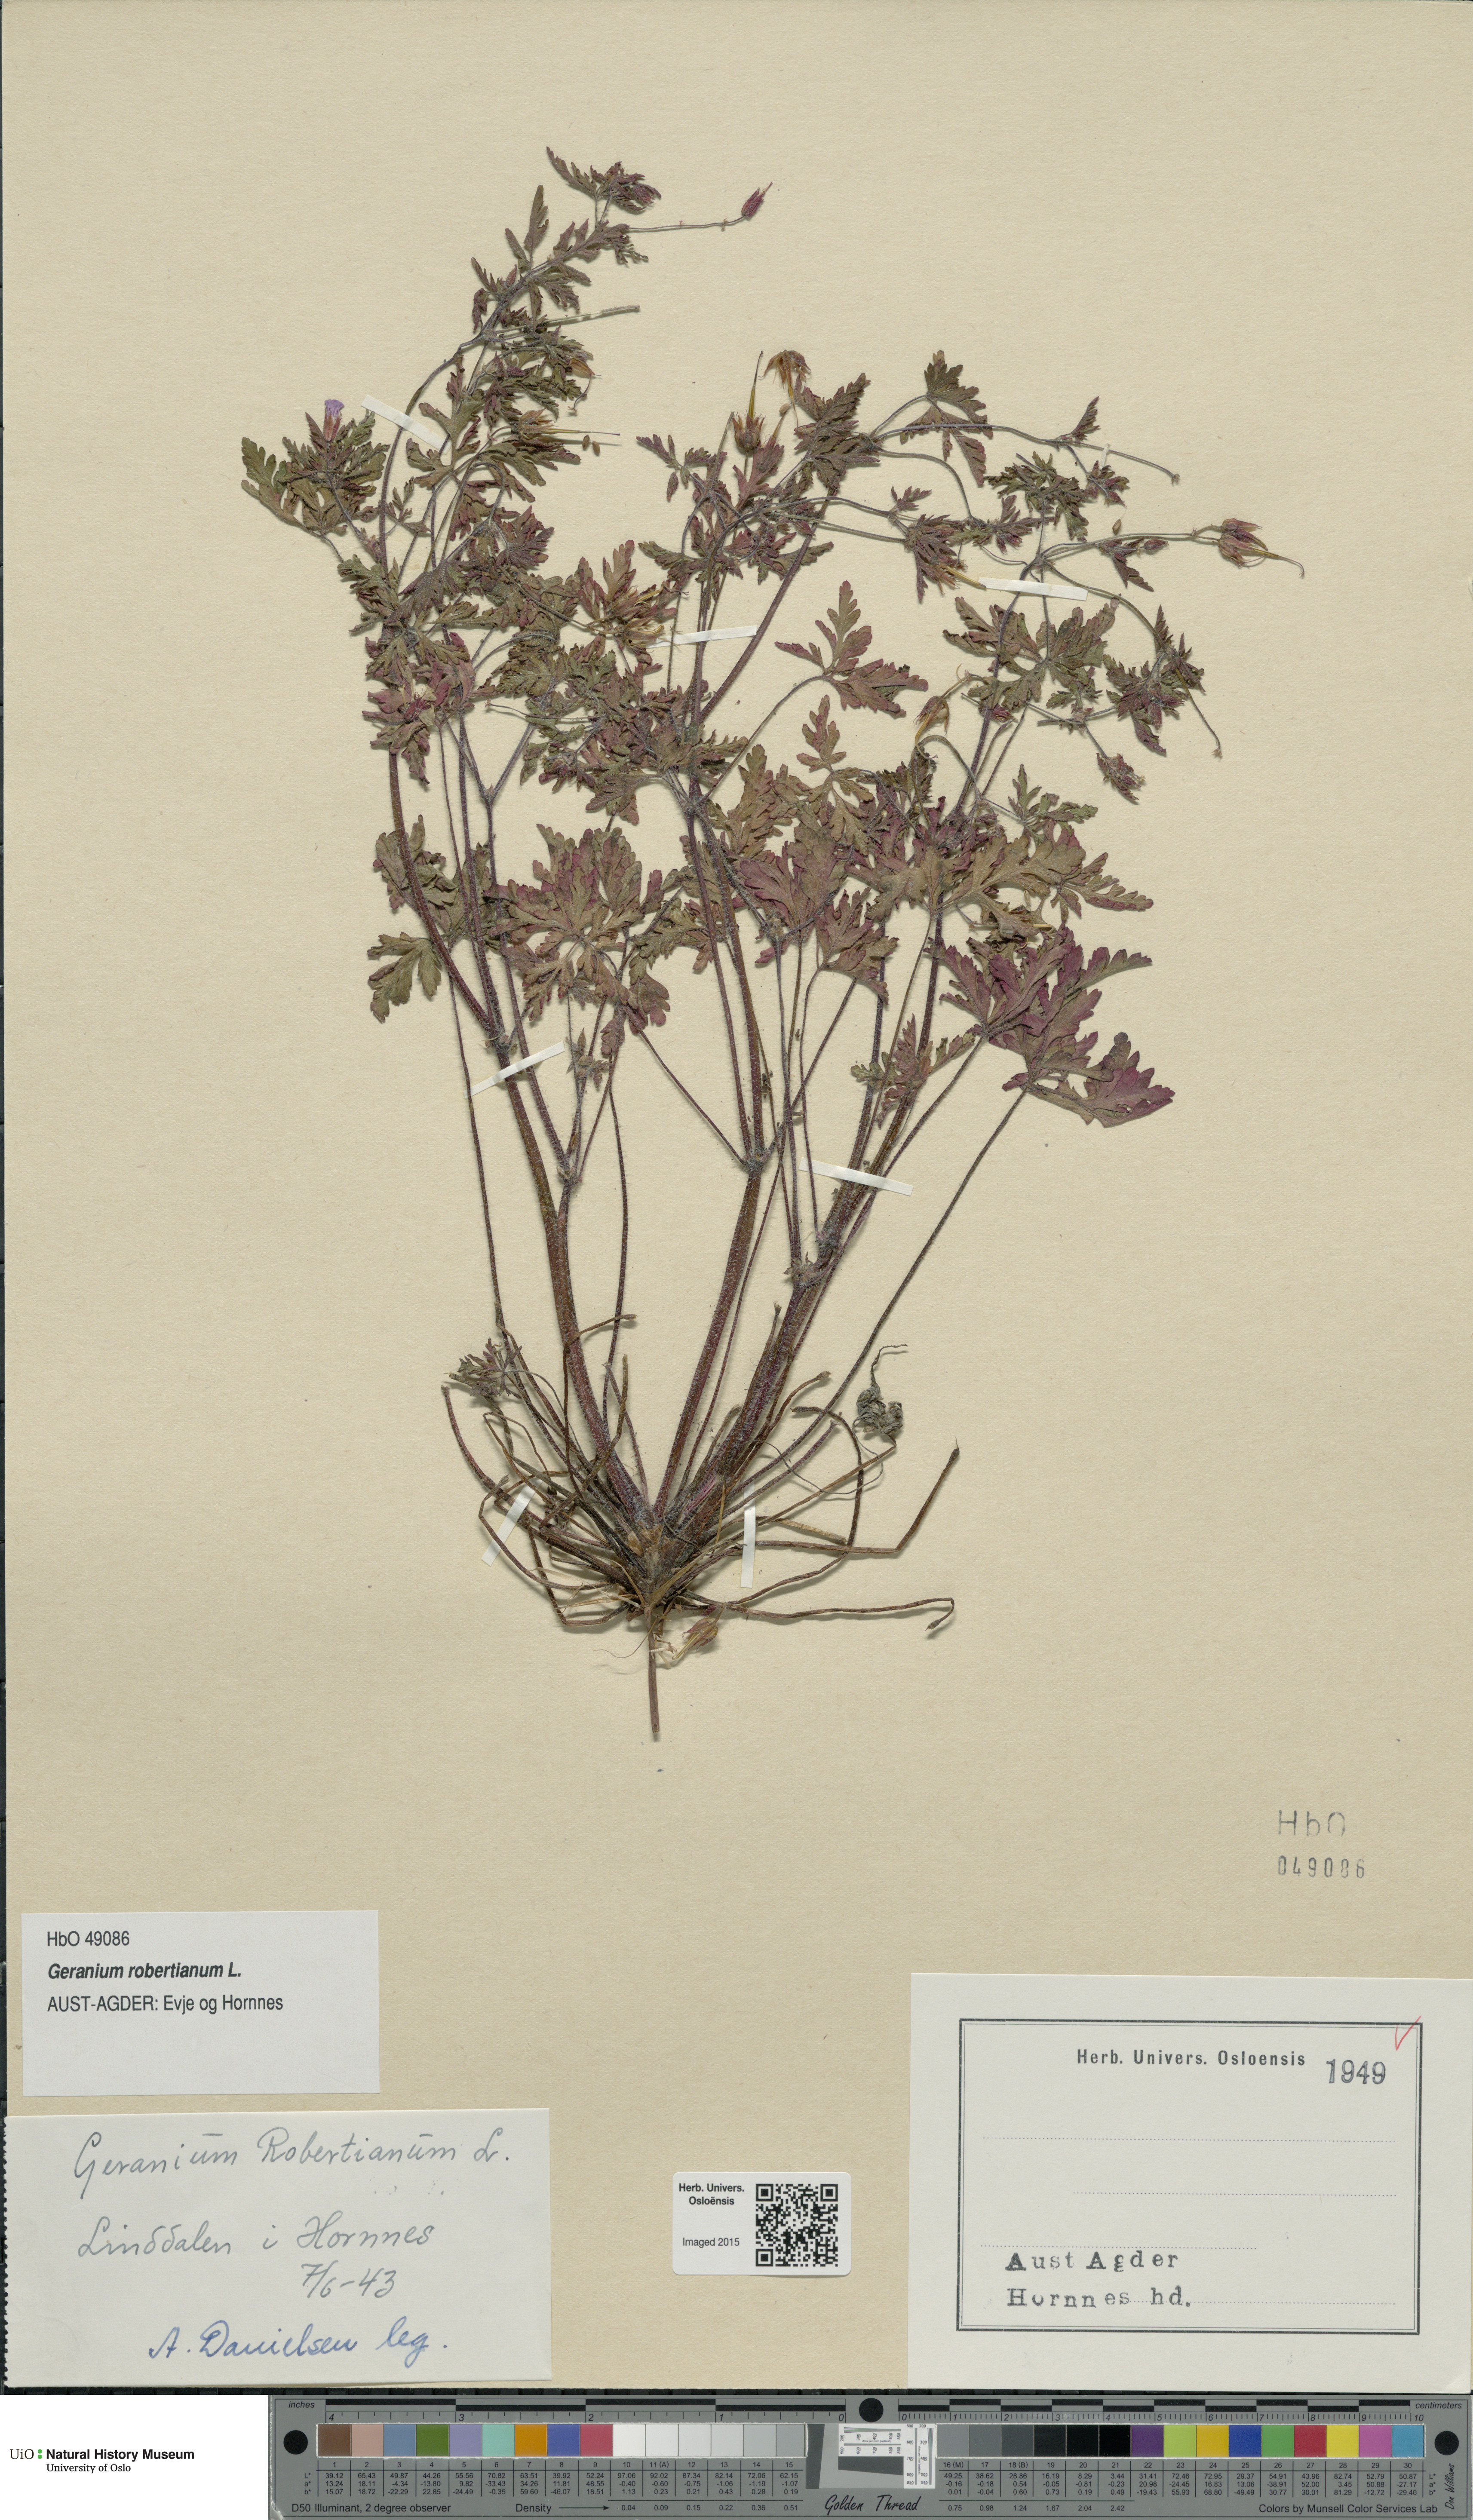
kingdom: Plantae
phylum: Tracheophyta
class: Magnoliopsida
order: Geraniales
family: Geraniaceae
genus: Geranium
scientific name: Geranium robertianum
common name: Herb-robert
